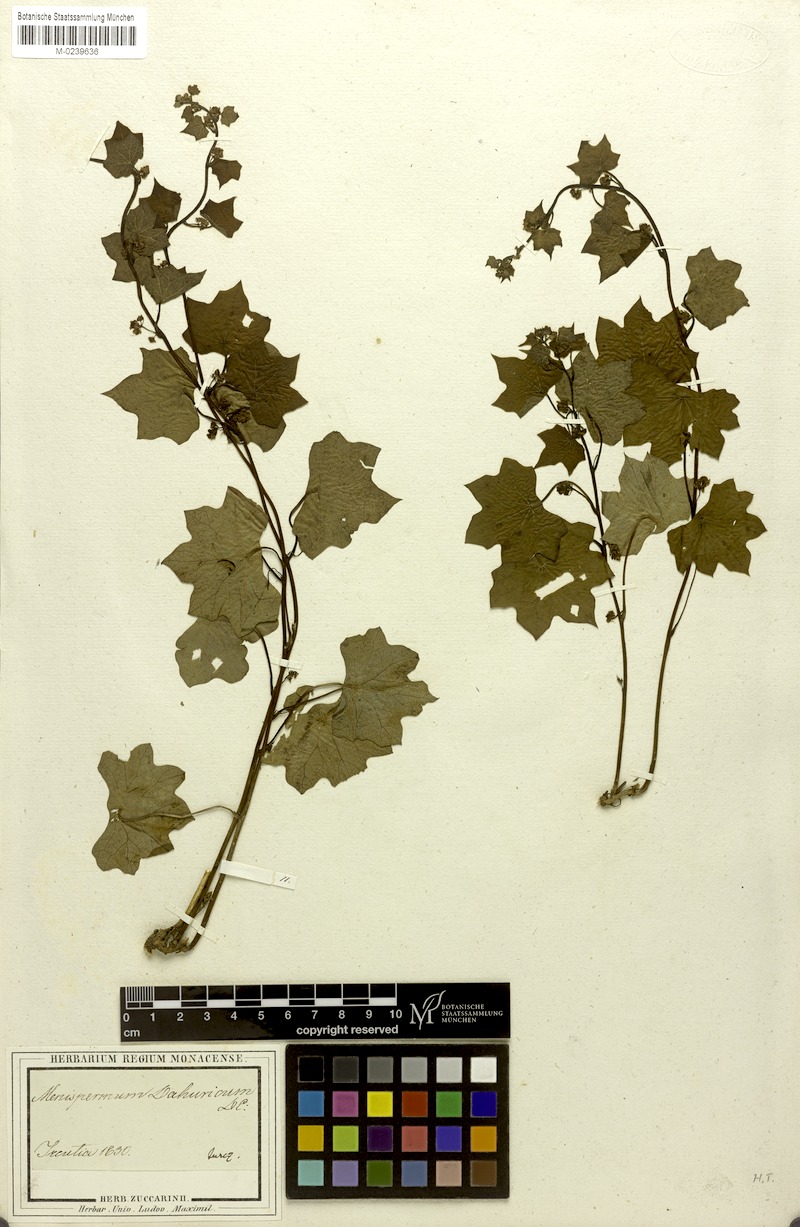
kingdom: Plantae
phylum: Tracheophyta
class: Magnoliopsida
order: Ranunculales
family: Menispermaceae
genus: Menispermum
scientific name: Menispermum dauricum
